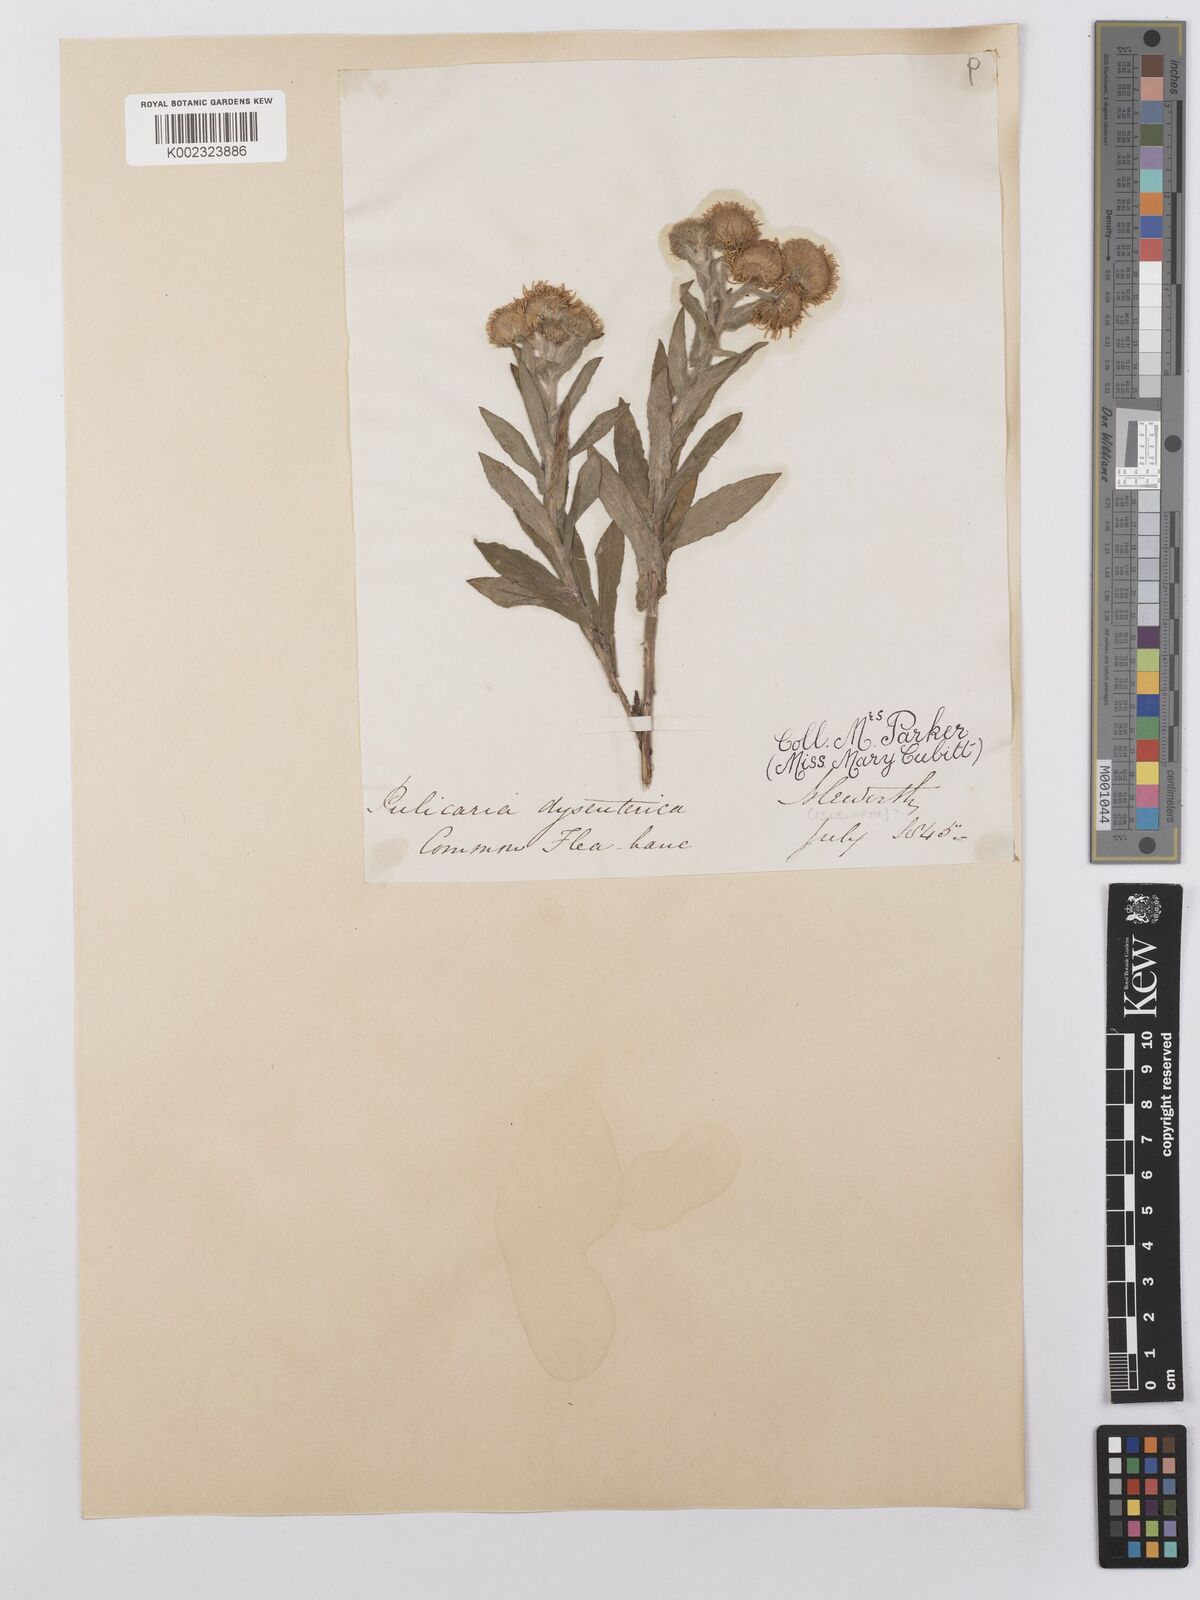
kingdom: Plantae
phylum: Tracheophyta
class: Magnoliopsida
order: Asterales
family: Asteraceae
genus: Pulicaria
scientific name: Pulicaria dysenterica
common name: Common fleabane
